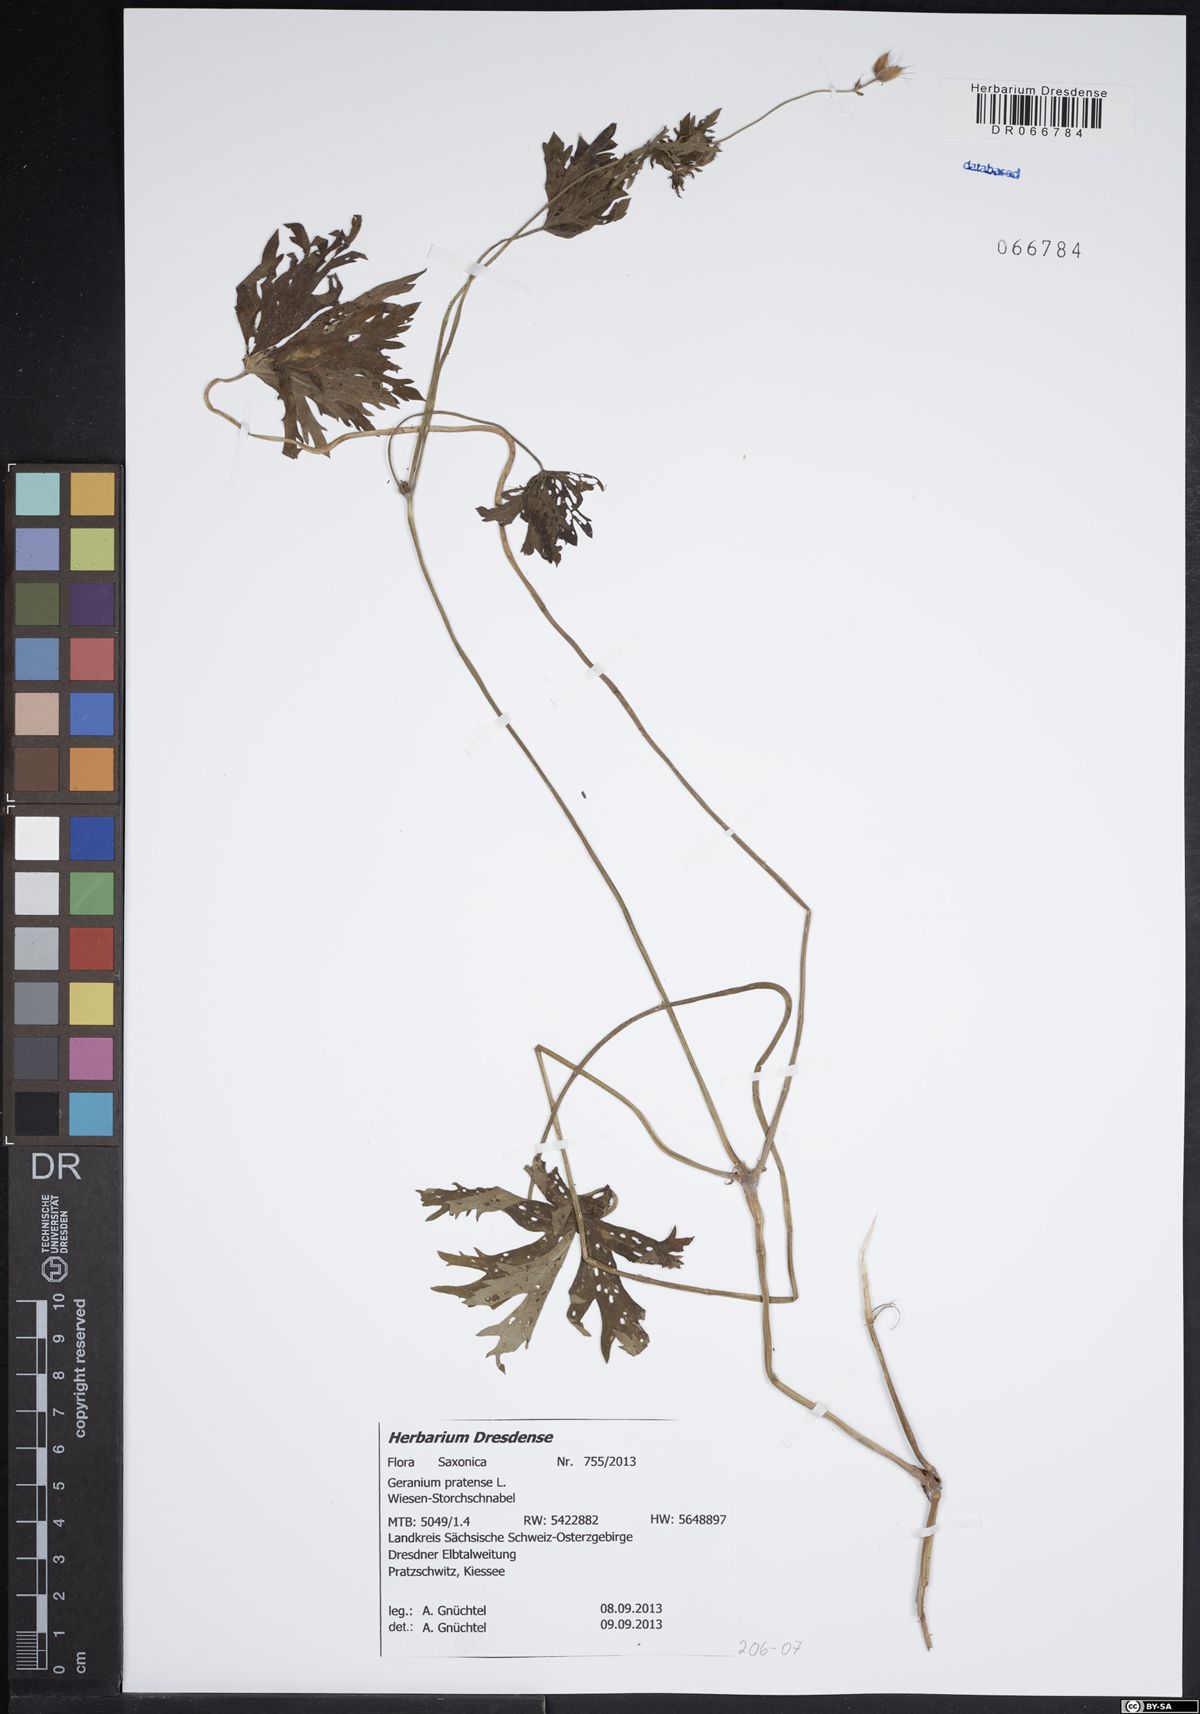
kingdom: Plantae
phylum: Tracheophyta
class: Magnoliopsida
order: Geraniales
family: Geraniaceae
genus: Geranium
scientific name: Geranium pratense
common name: Meadow crane's-bill
